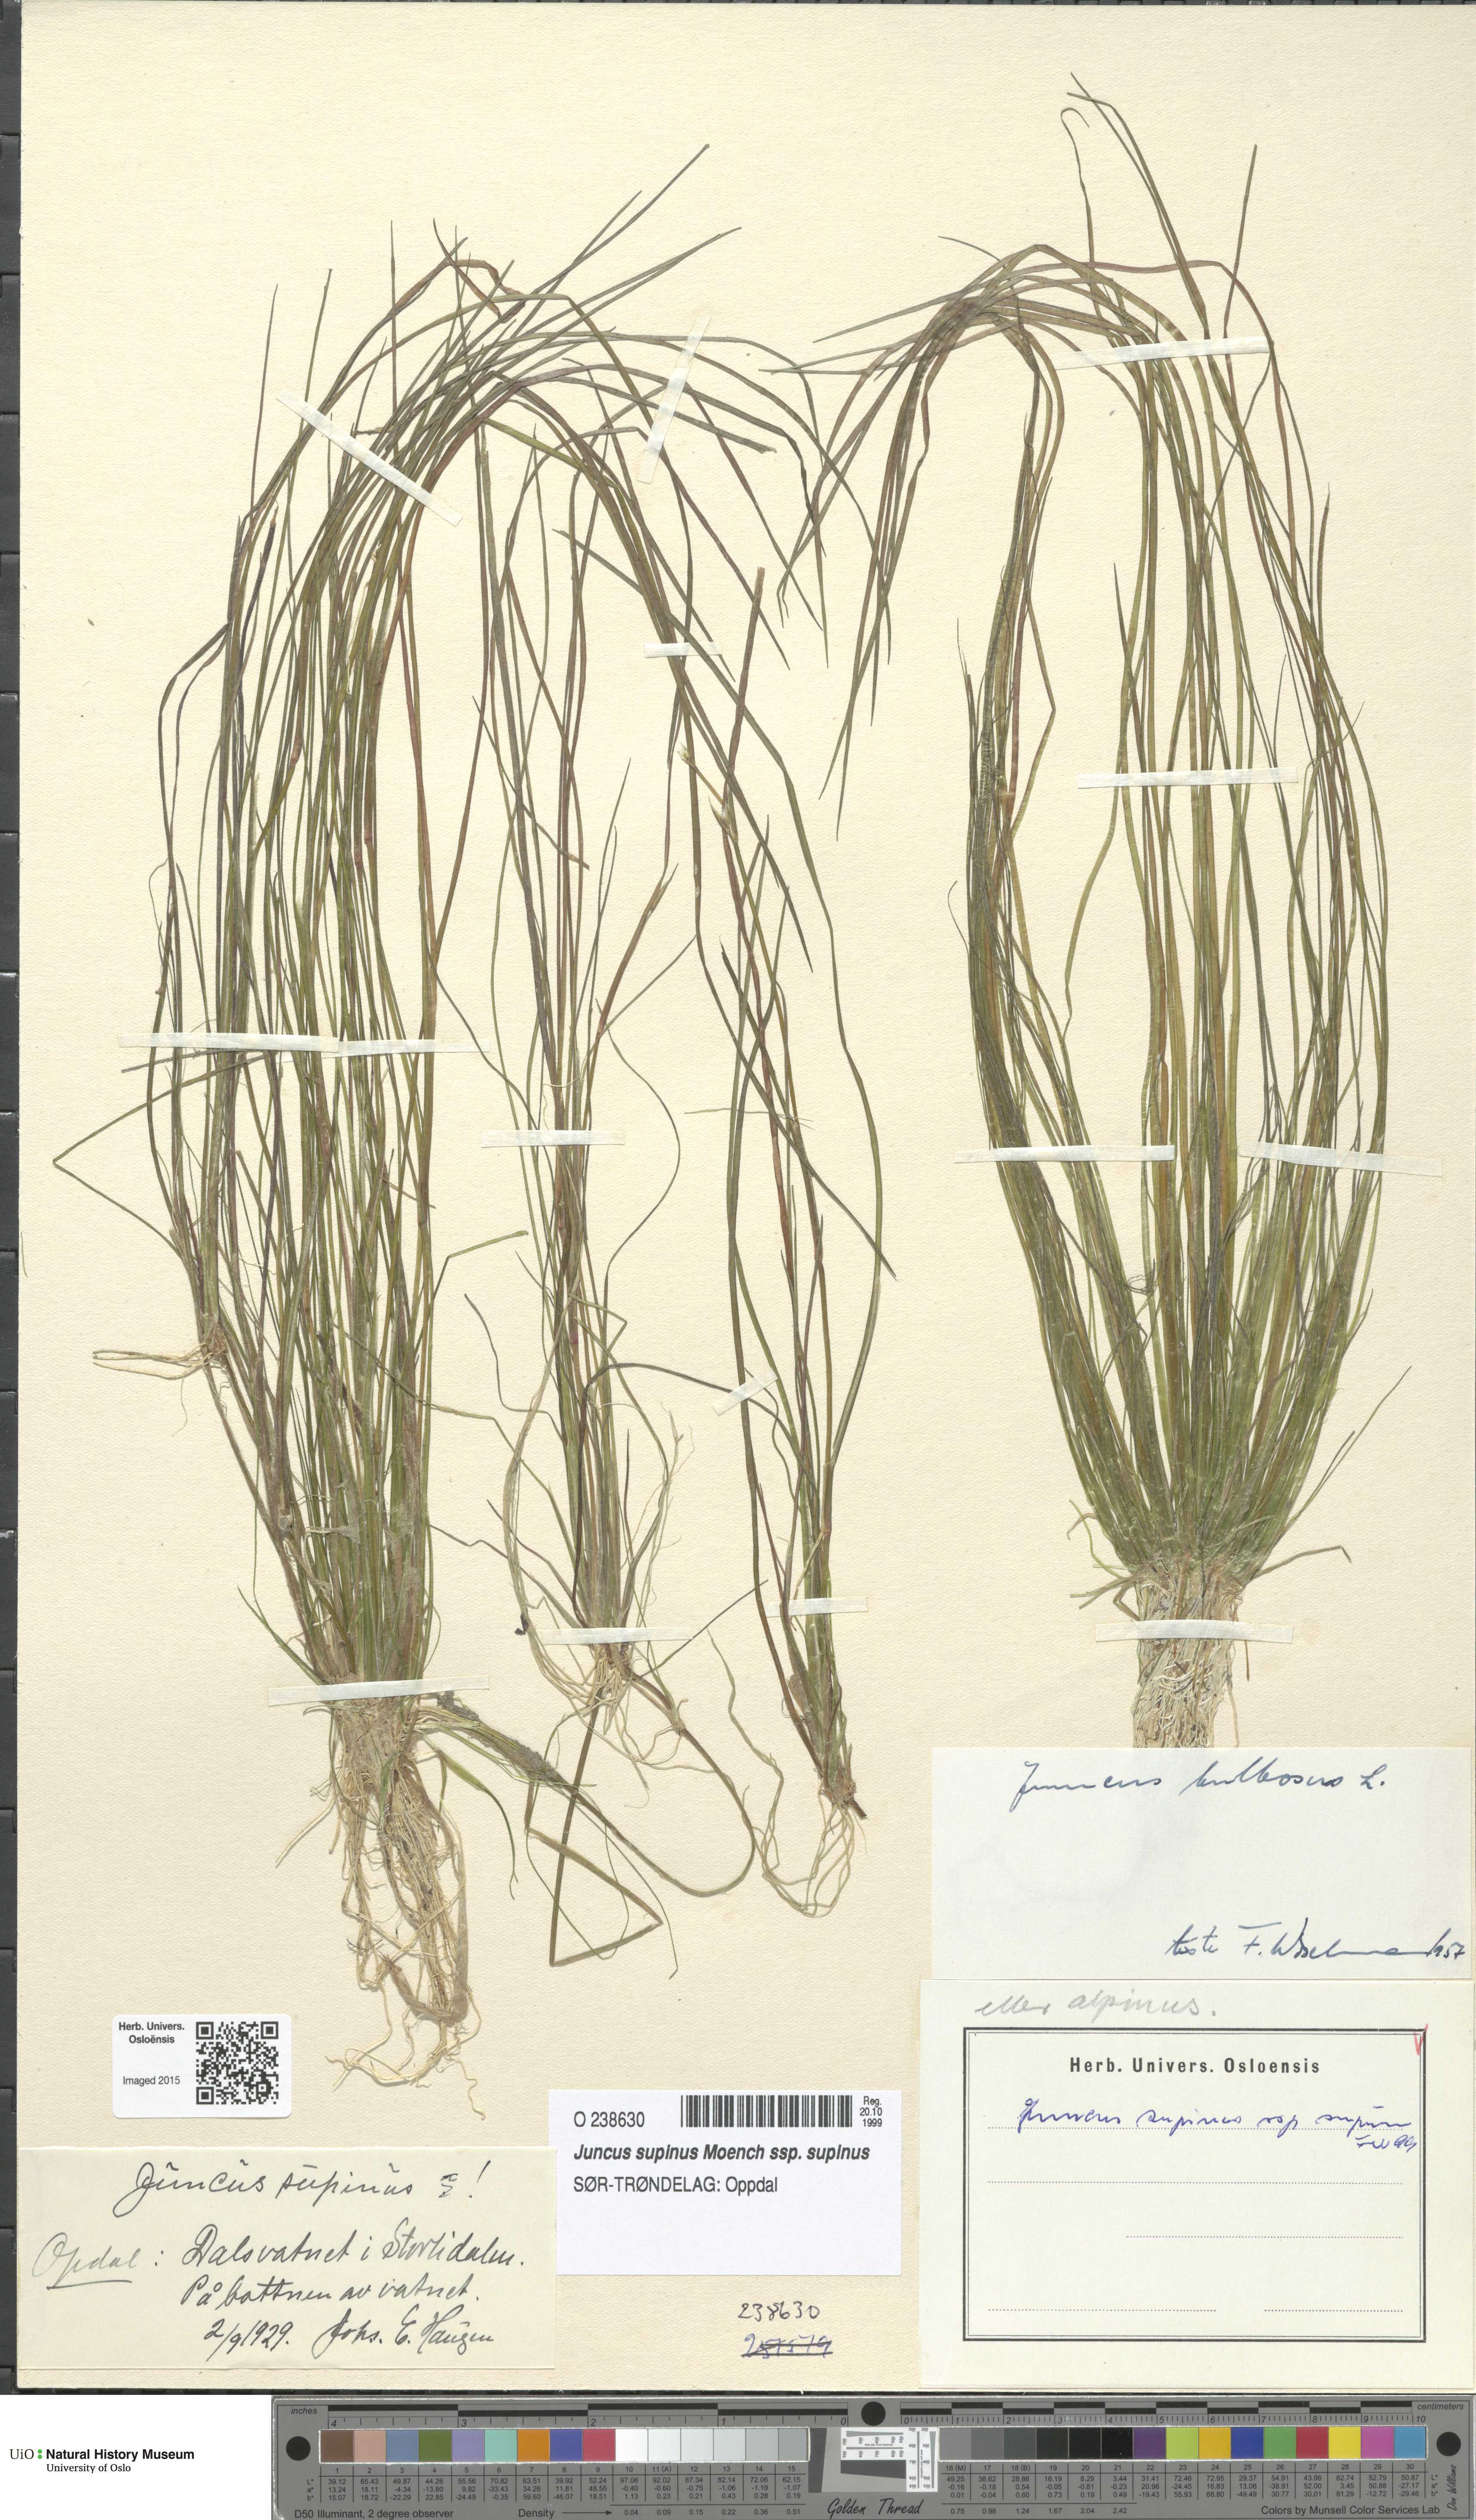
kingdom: Plantae
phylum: Tracheophyta
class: Liliopsida
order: Poales
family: Juncaceae
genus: Juncus
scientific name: Juncus bulbosus
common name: Bulbous rush
